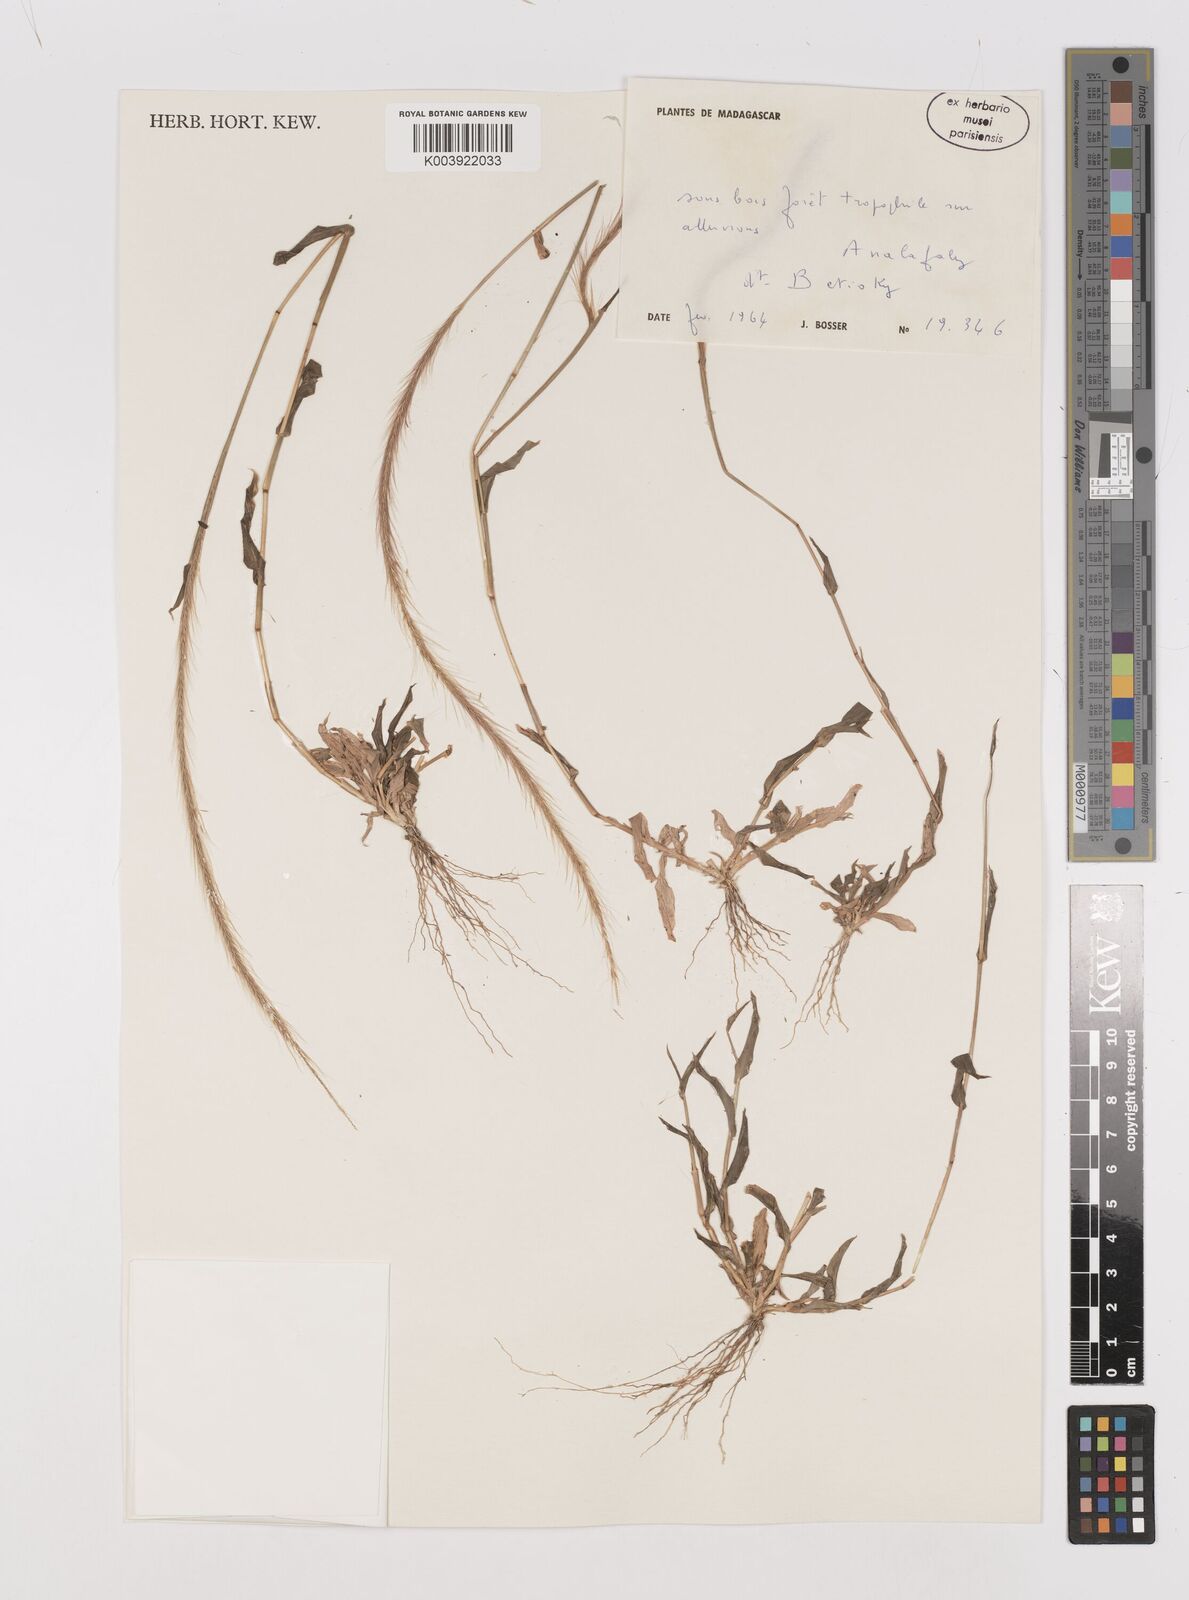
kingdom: Plantae
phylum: Tracheophyta
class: Liliopsida
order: Poales
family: Poaceae
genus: Perotis
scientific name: Perotis patens
